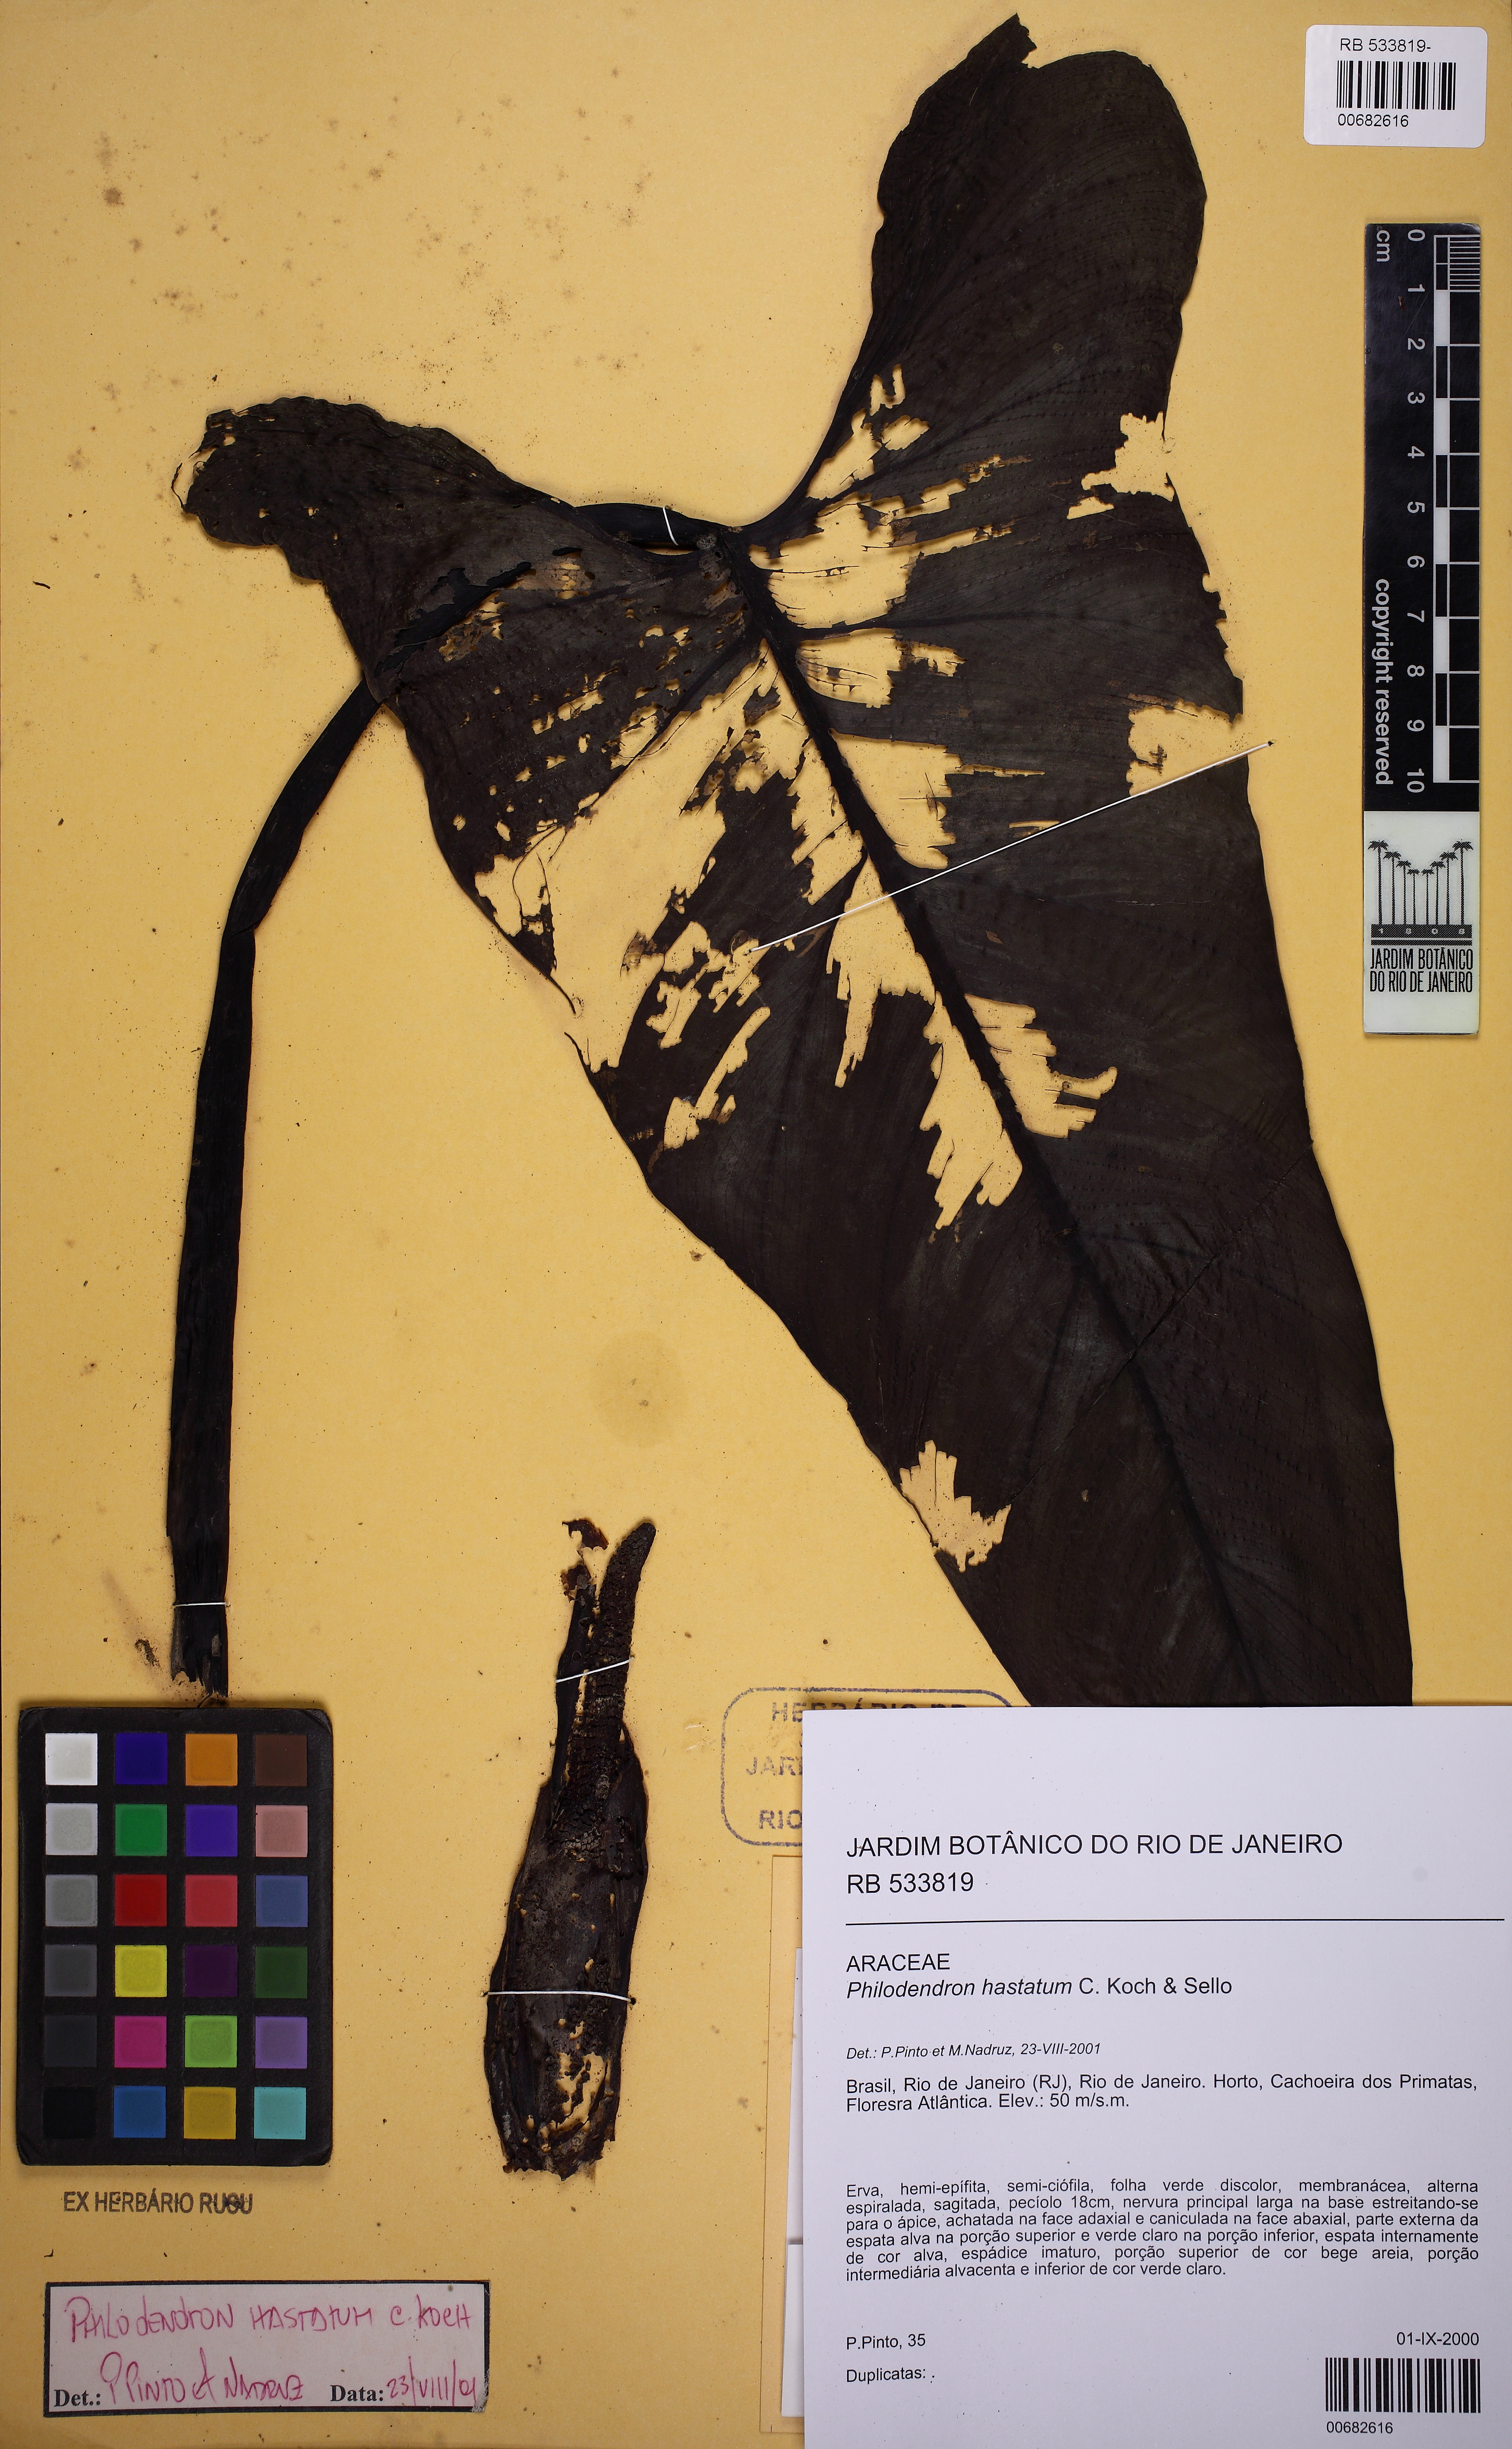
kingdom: Plantae
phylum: Tracheophyta
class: Liliopsida
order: Alismatales
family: Araceae
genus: Philodendron
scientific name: Philodendron hastatum
